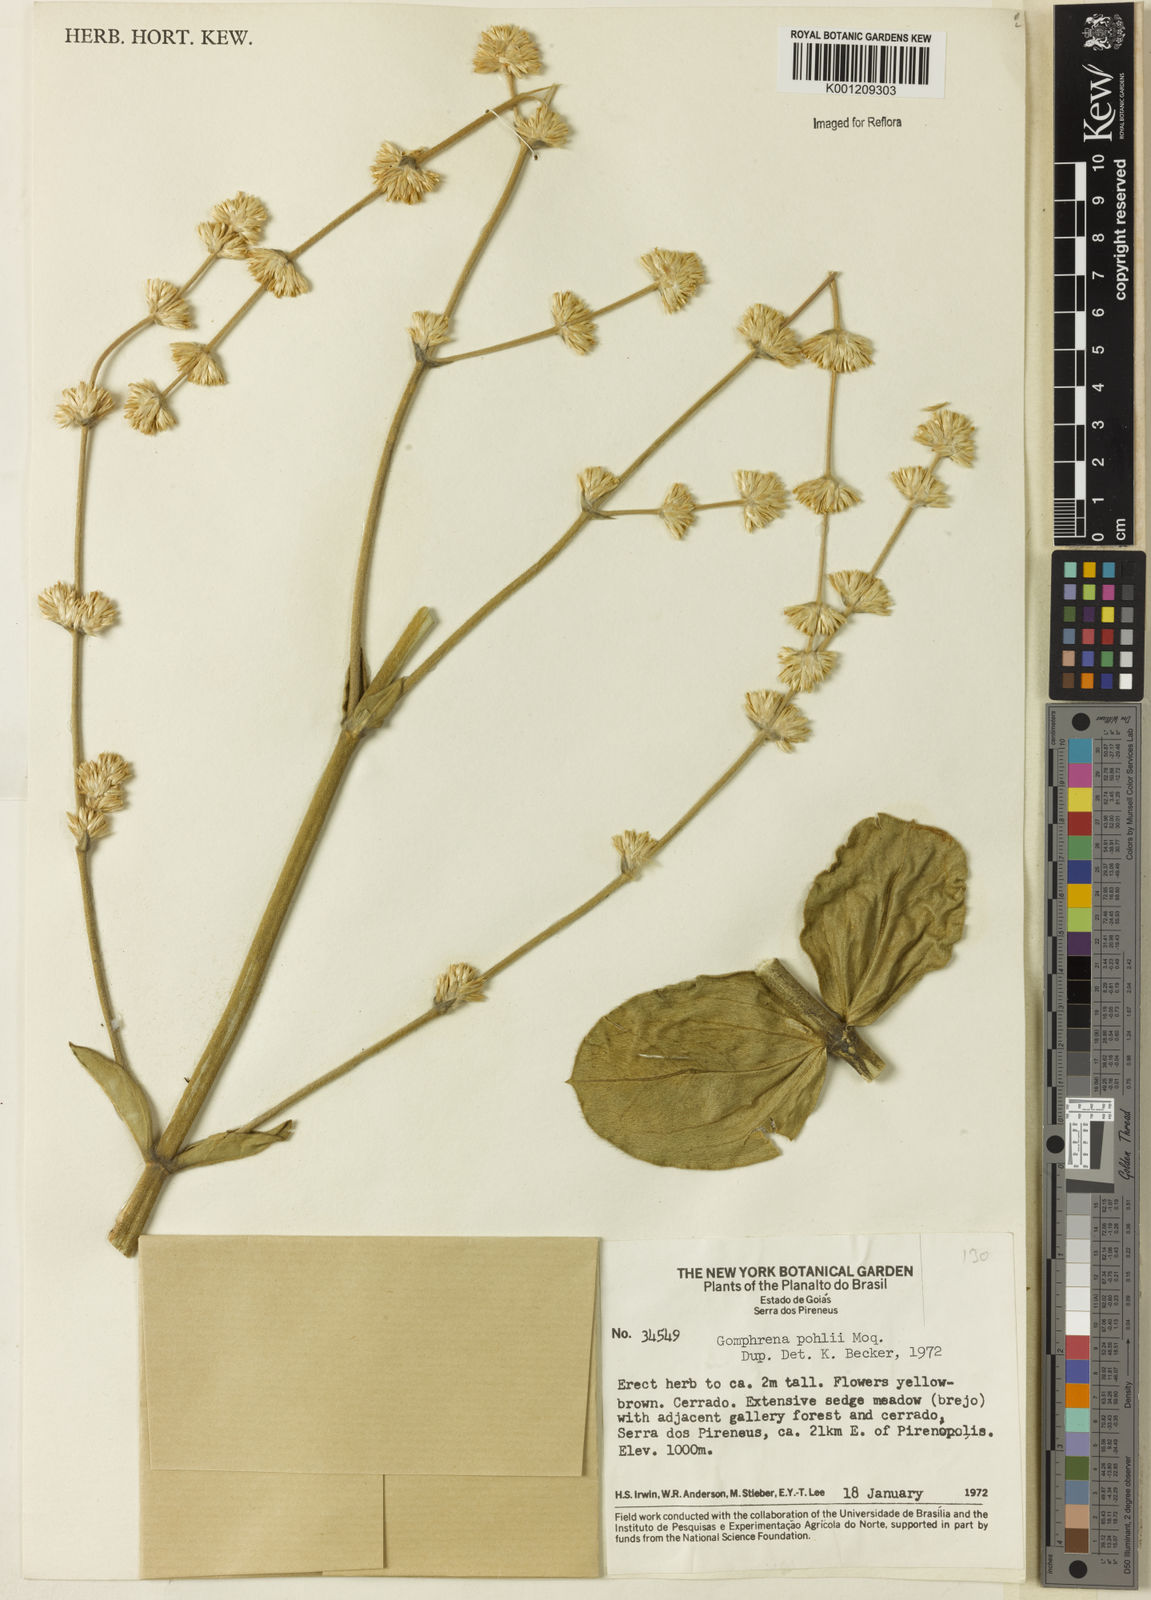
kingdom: Plantae
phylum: Tracheophyta
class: Magnoliopsida
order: Caryophyllales
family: Amaranthaceae
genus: Gomphrena
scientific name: Gomphrena pohlii
